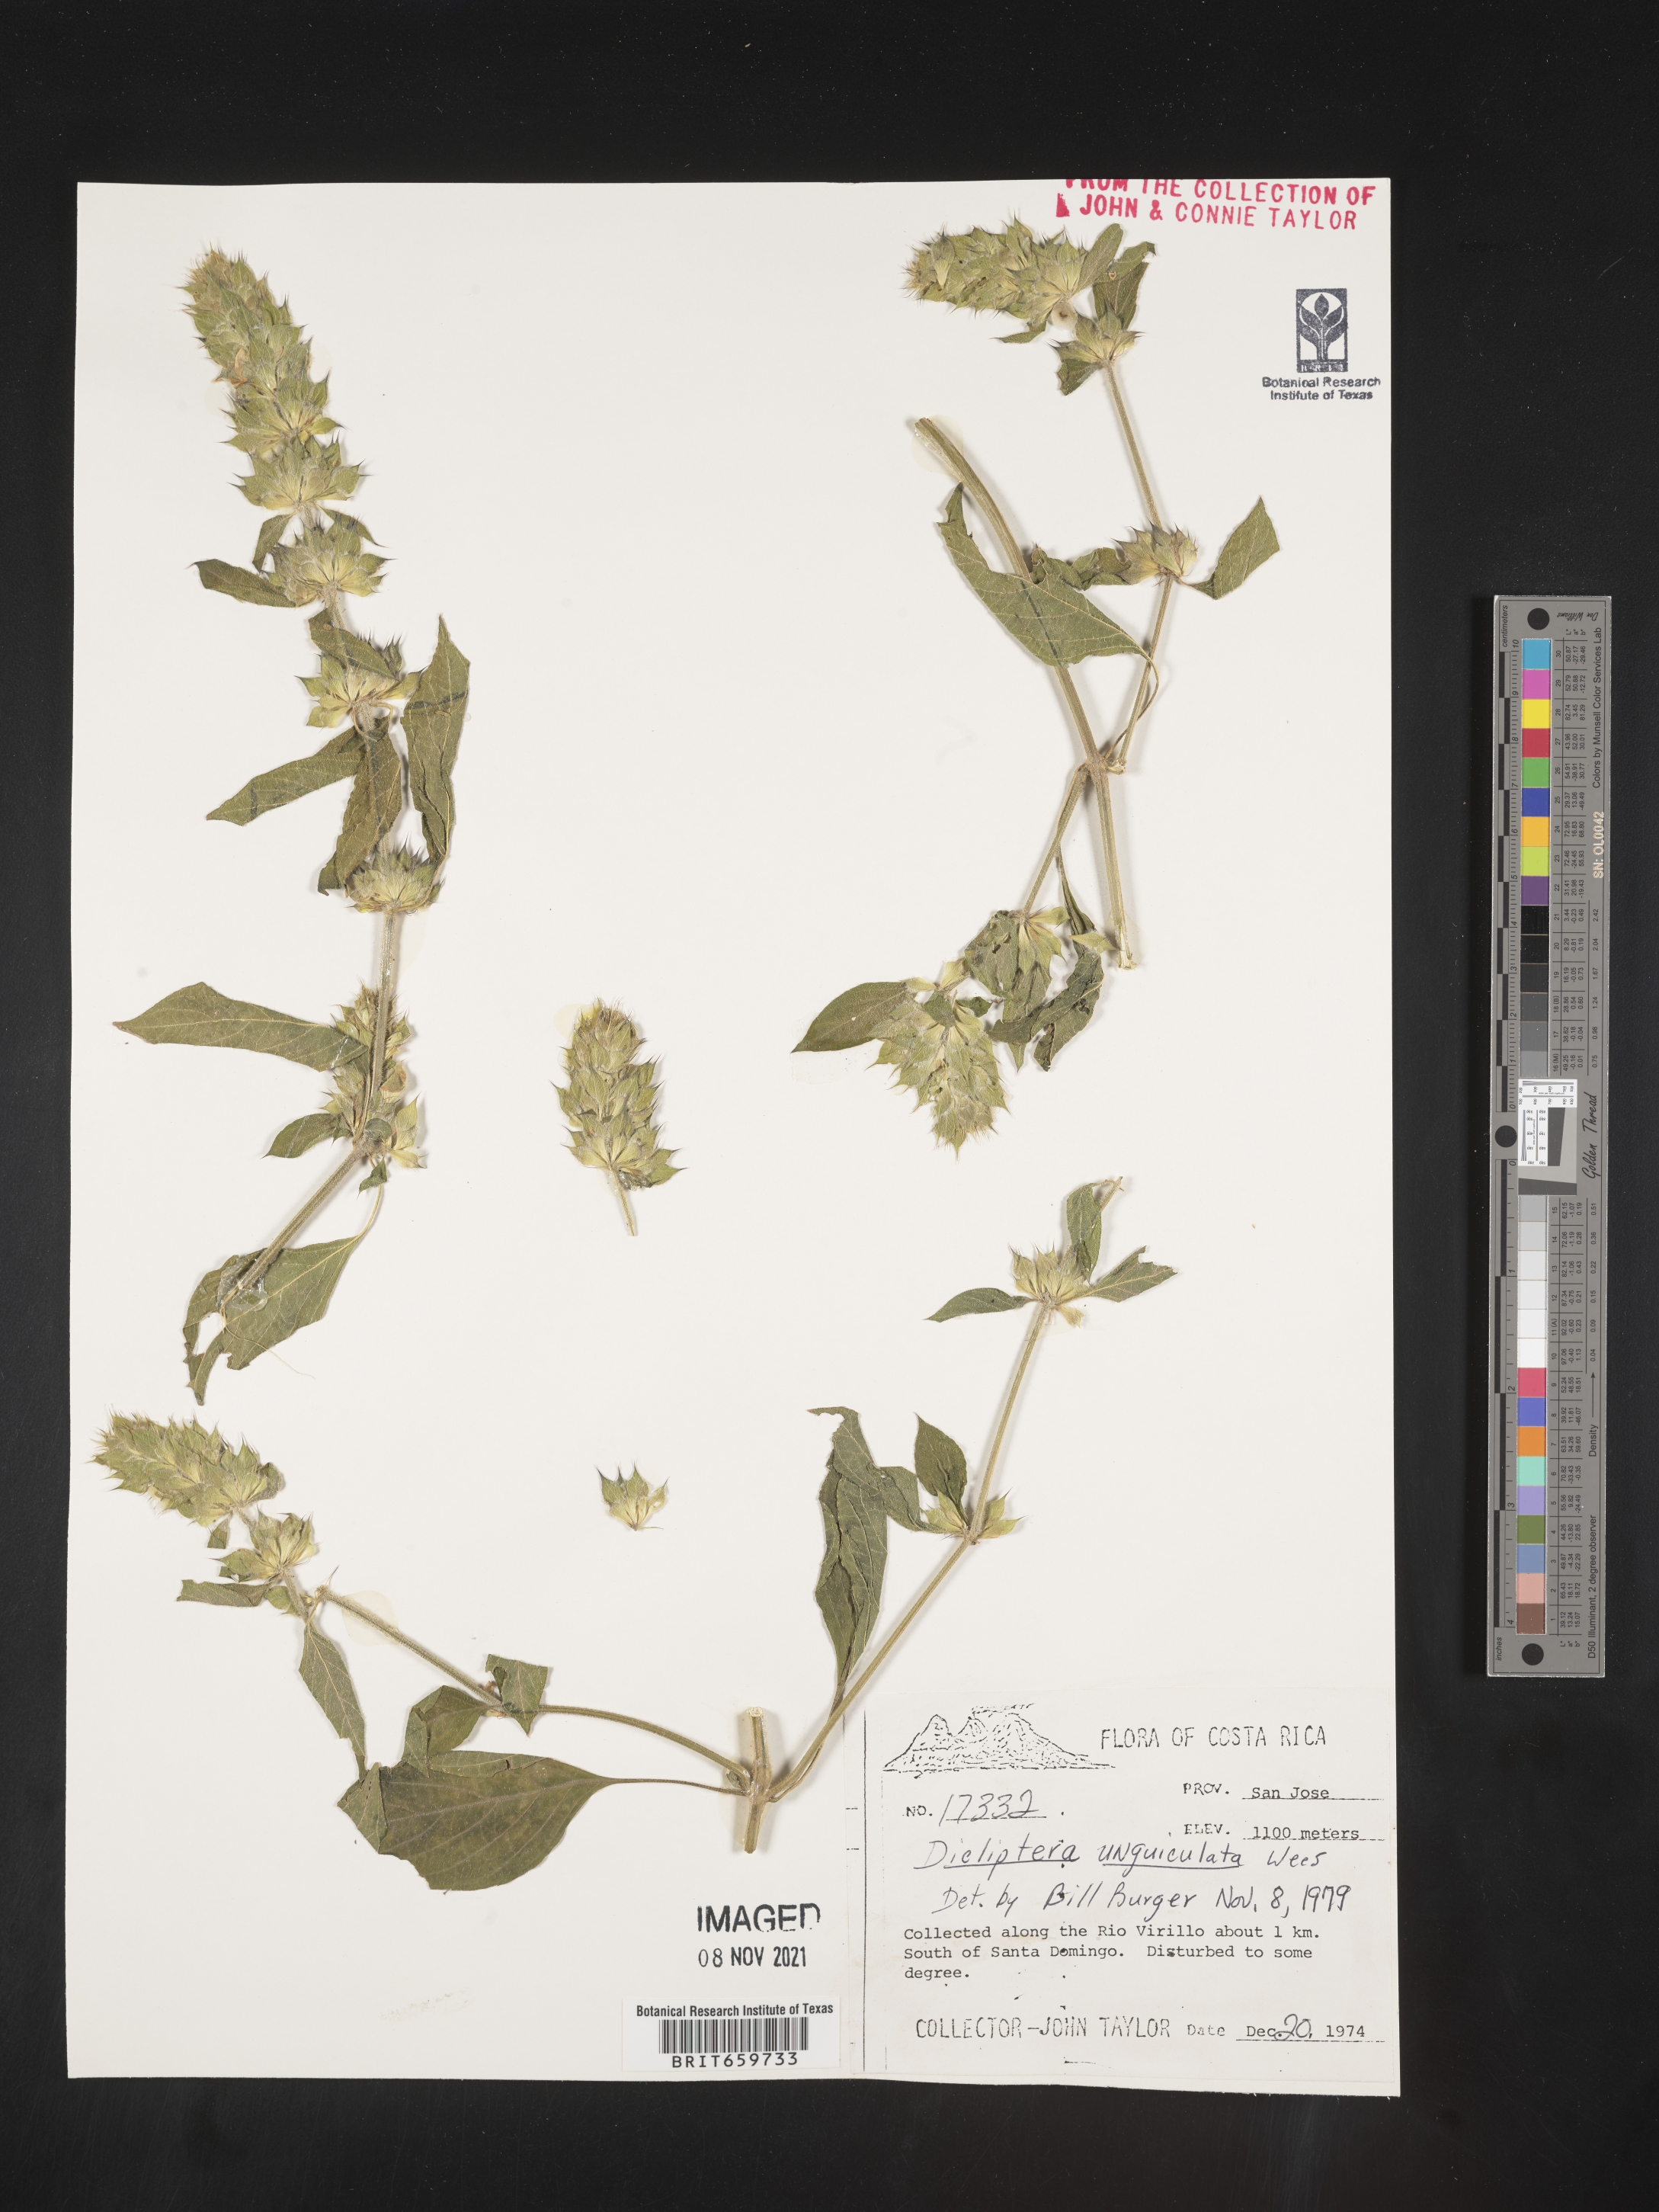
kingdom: Plantae
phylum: Tracheophyta
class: Magnoliopsida
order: Lamiales
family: Acanthaceae
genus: Dicliptera
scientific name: Dicliptera
